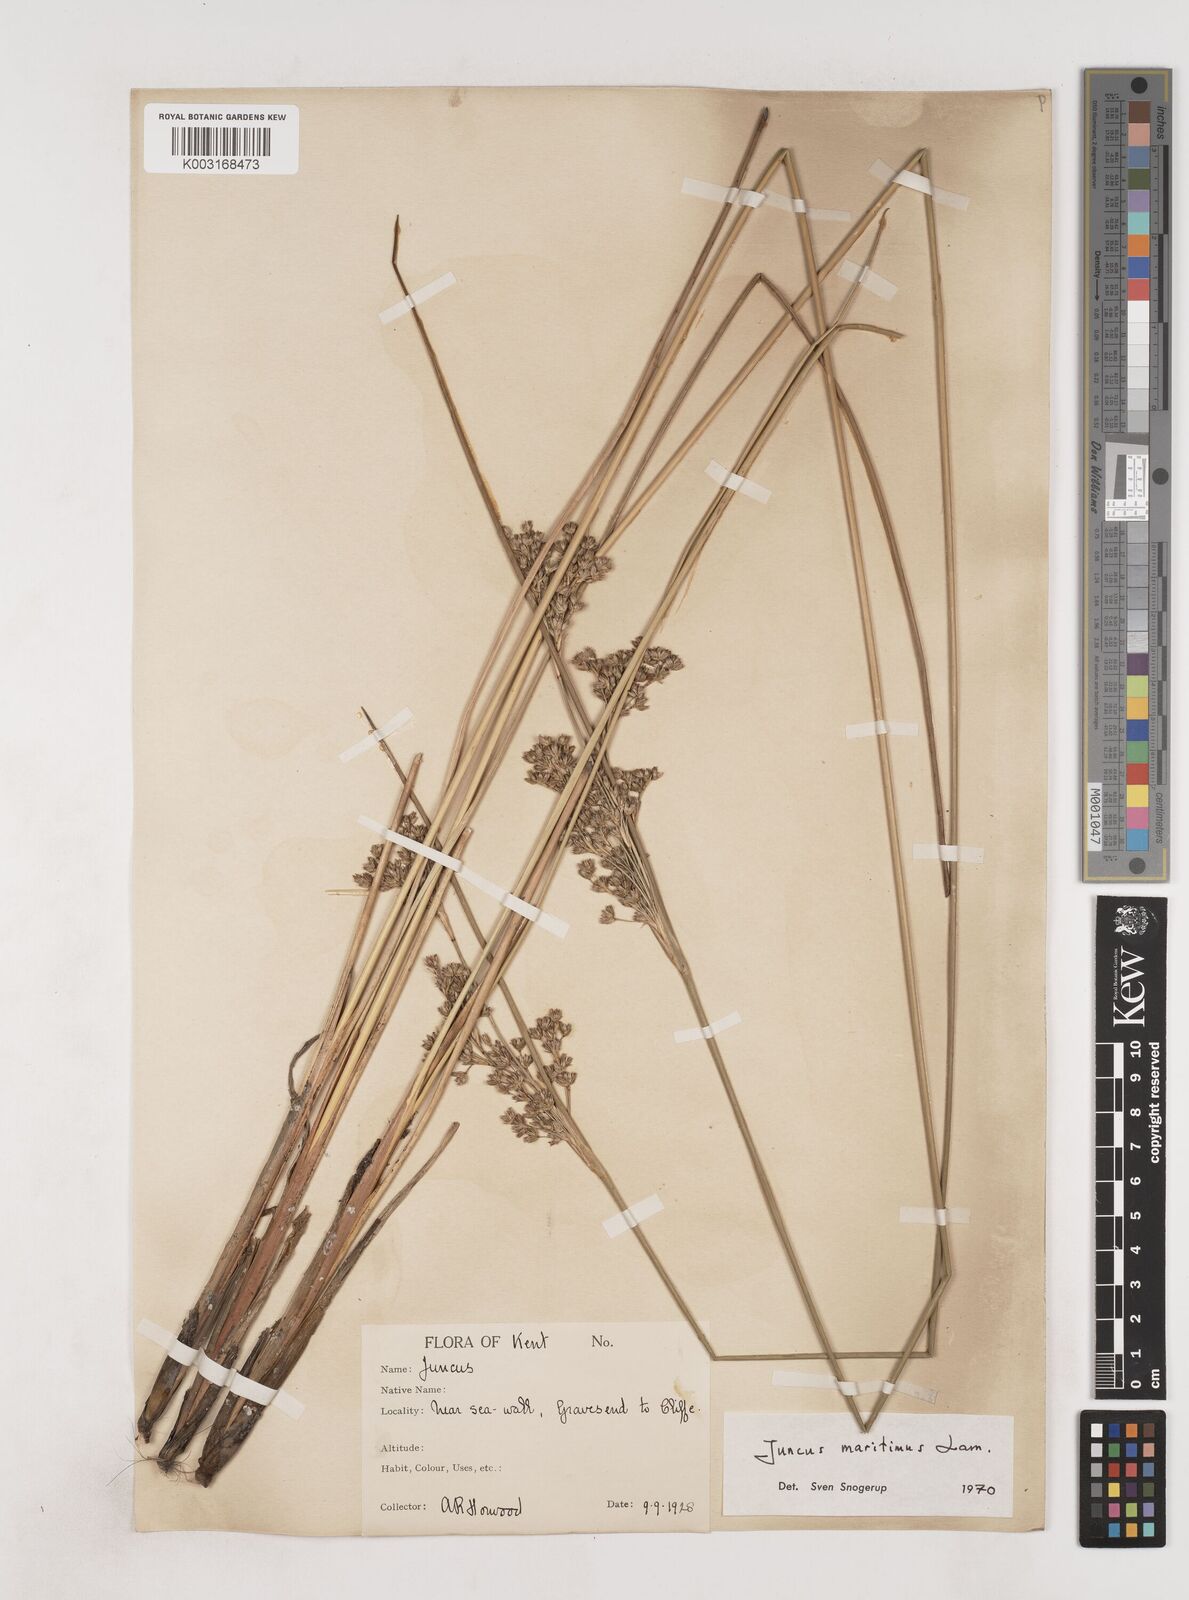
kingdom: Plantae
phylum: Tracheophyta
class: Liliopsida
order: Poales
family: Juncaceae
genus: Juncus
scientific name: Juncus maritimus
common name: Sea rush
